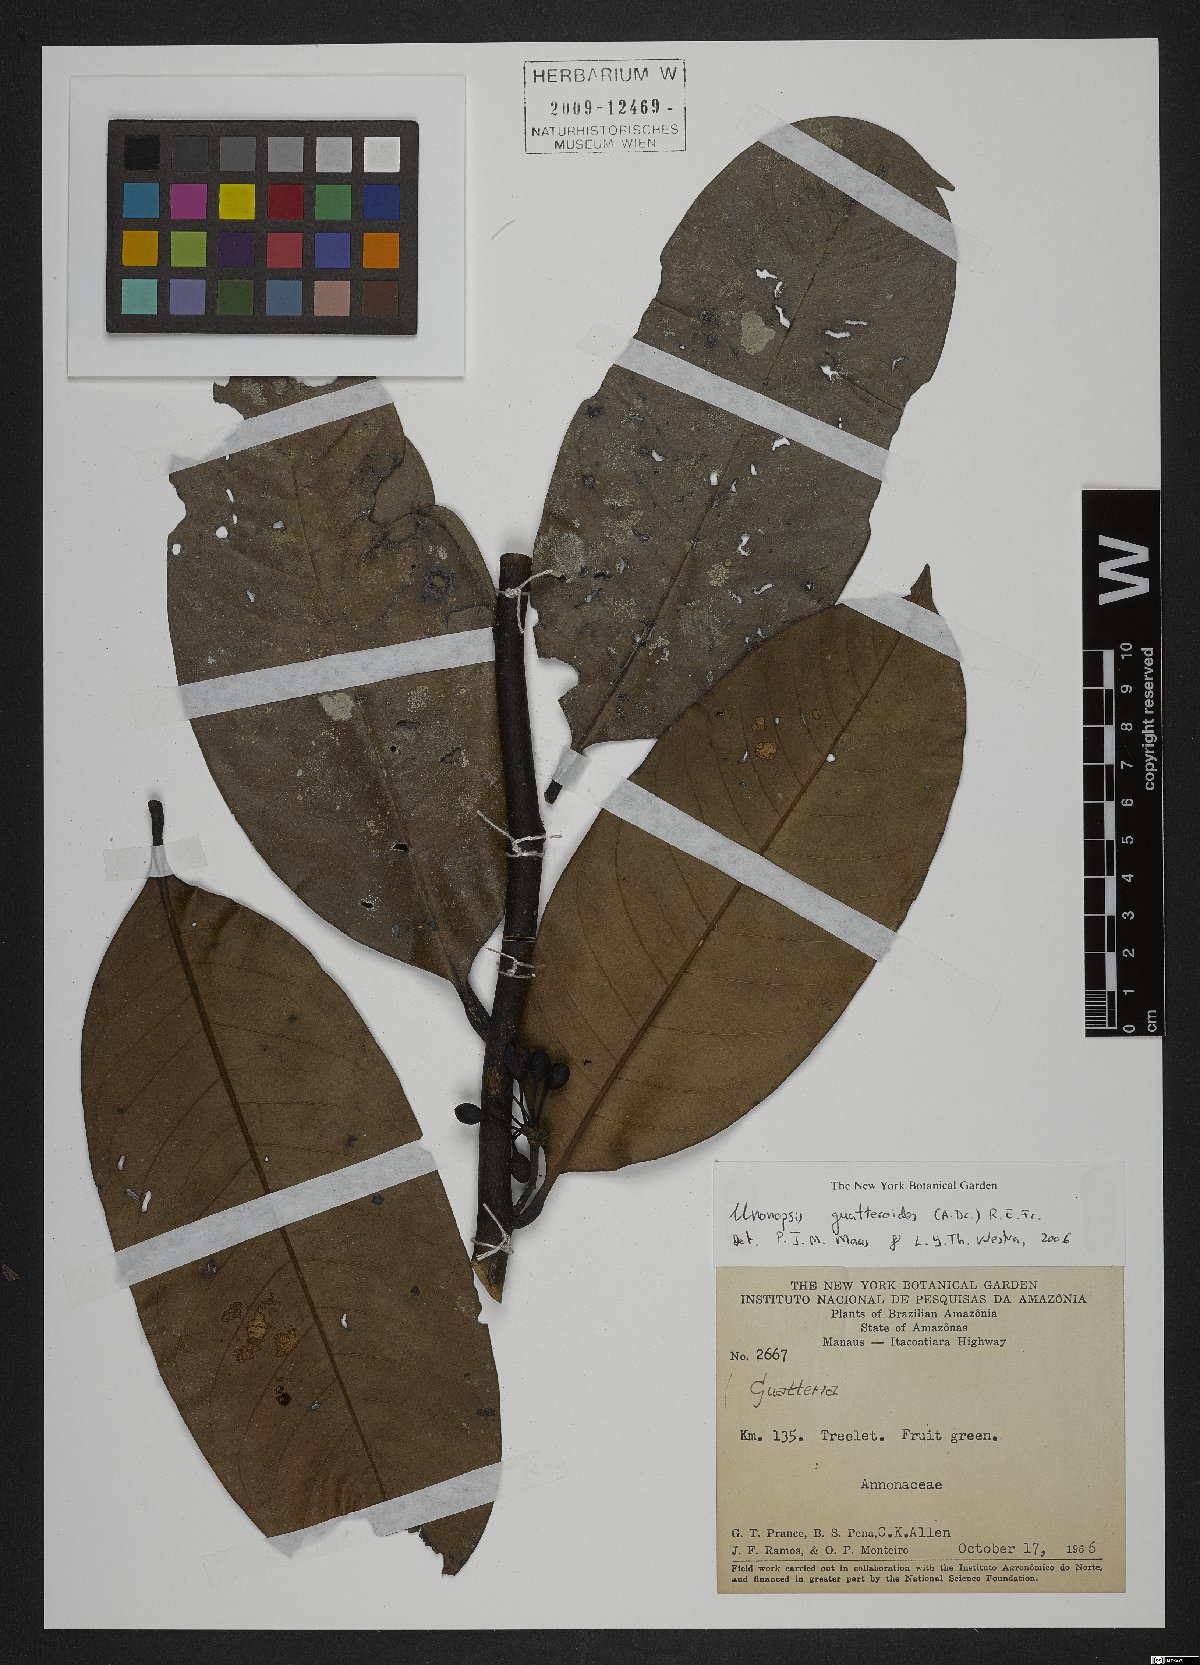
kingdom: Plantae
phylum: Tracheophyta
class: Magnoliopsida
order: Magnoliales
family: Annonaceae
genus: Unonopsis
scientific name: Unonopsis guatterioides
